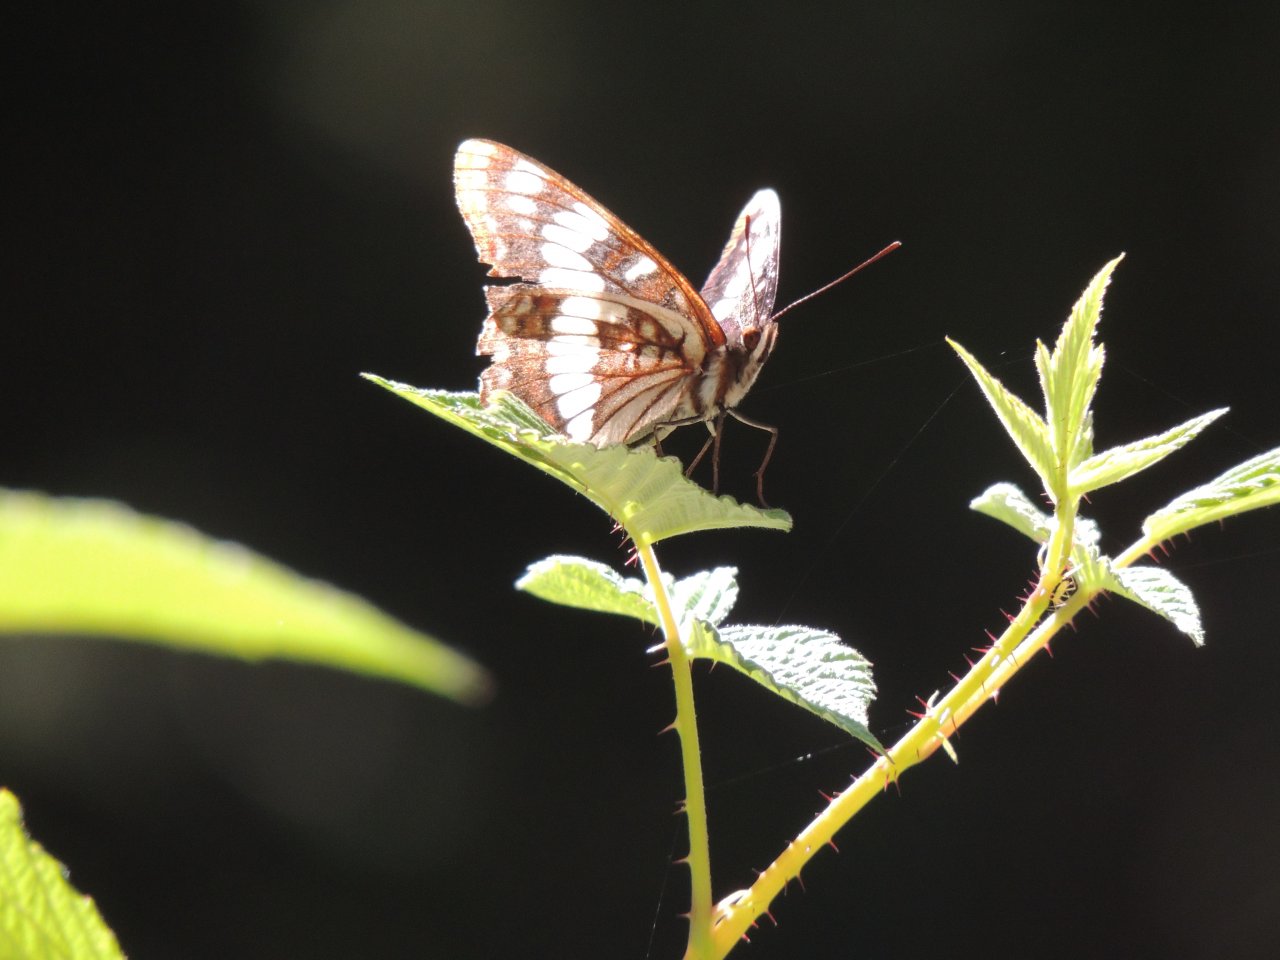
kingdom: Animalia
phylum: Arthropoda
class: Insecta
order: Lepidoptera
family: Nymphalidae
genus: Limenitis
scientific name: Limenitis lorquini
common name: Lorquin's Admiral
